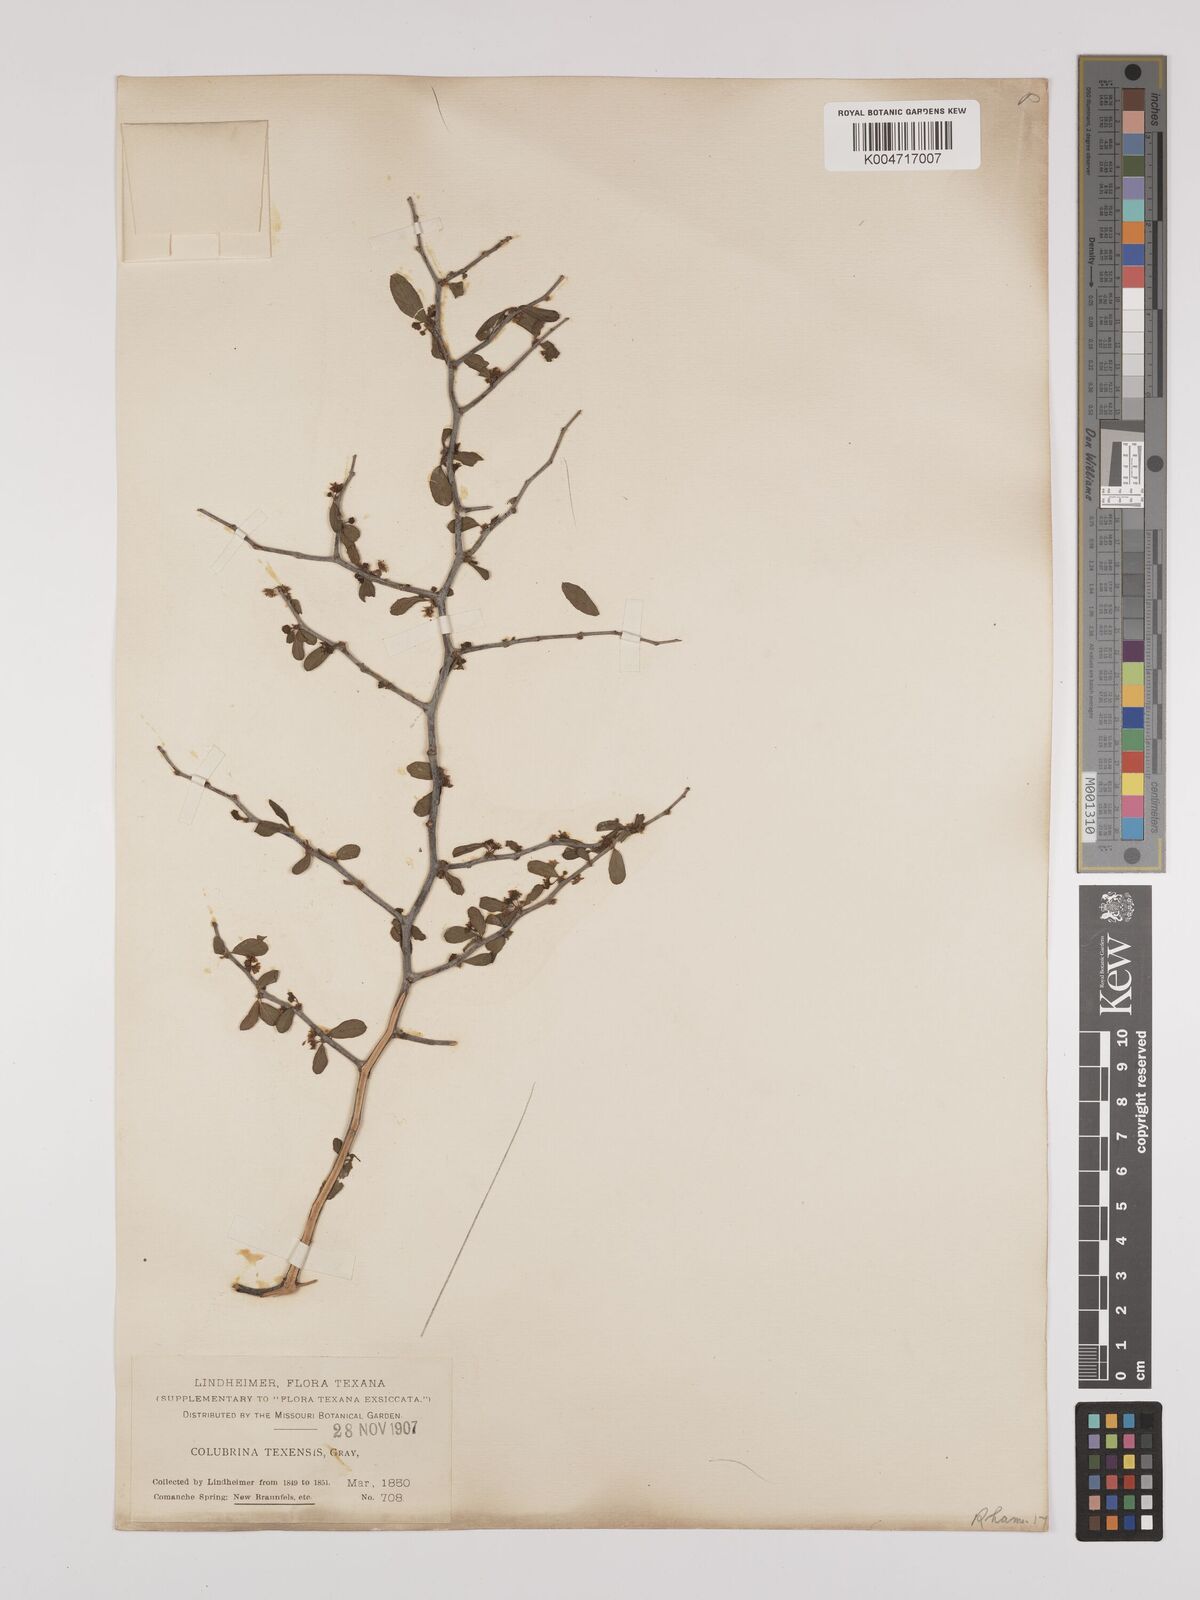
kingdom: Plantae
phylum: Tracheophyta
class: Magnoliopsida
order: Rosales
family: Rhamnaceae
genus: Colubrina
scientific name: Colubrina texensis
